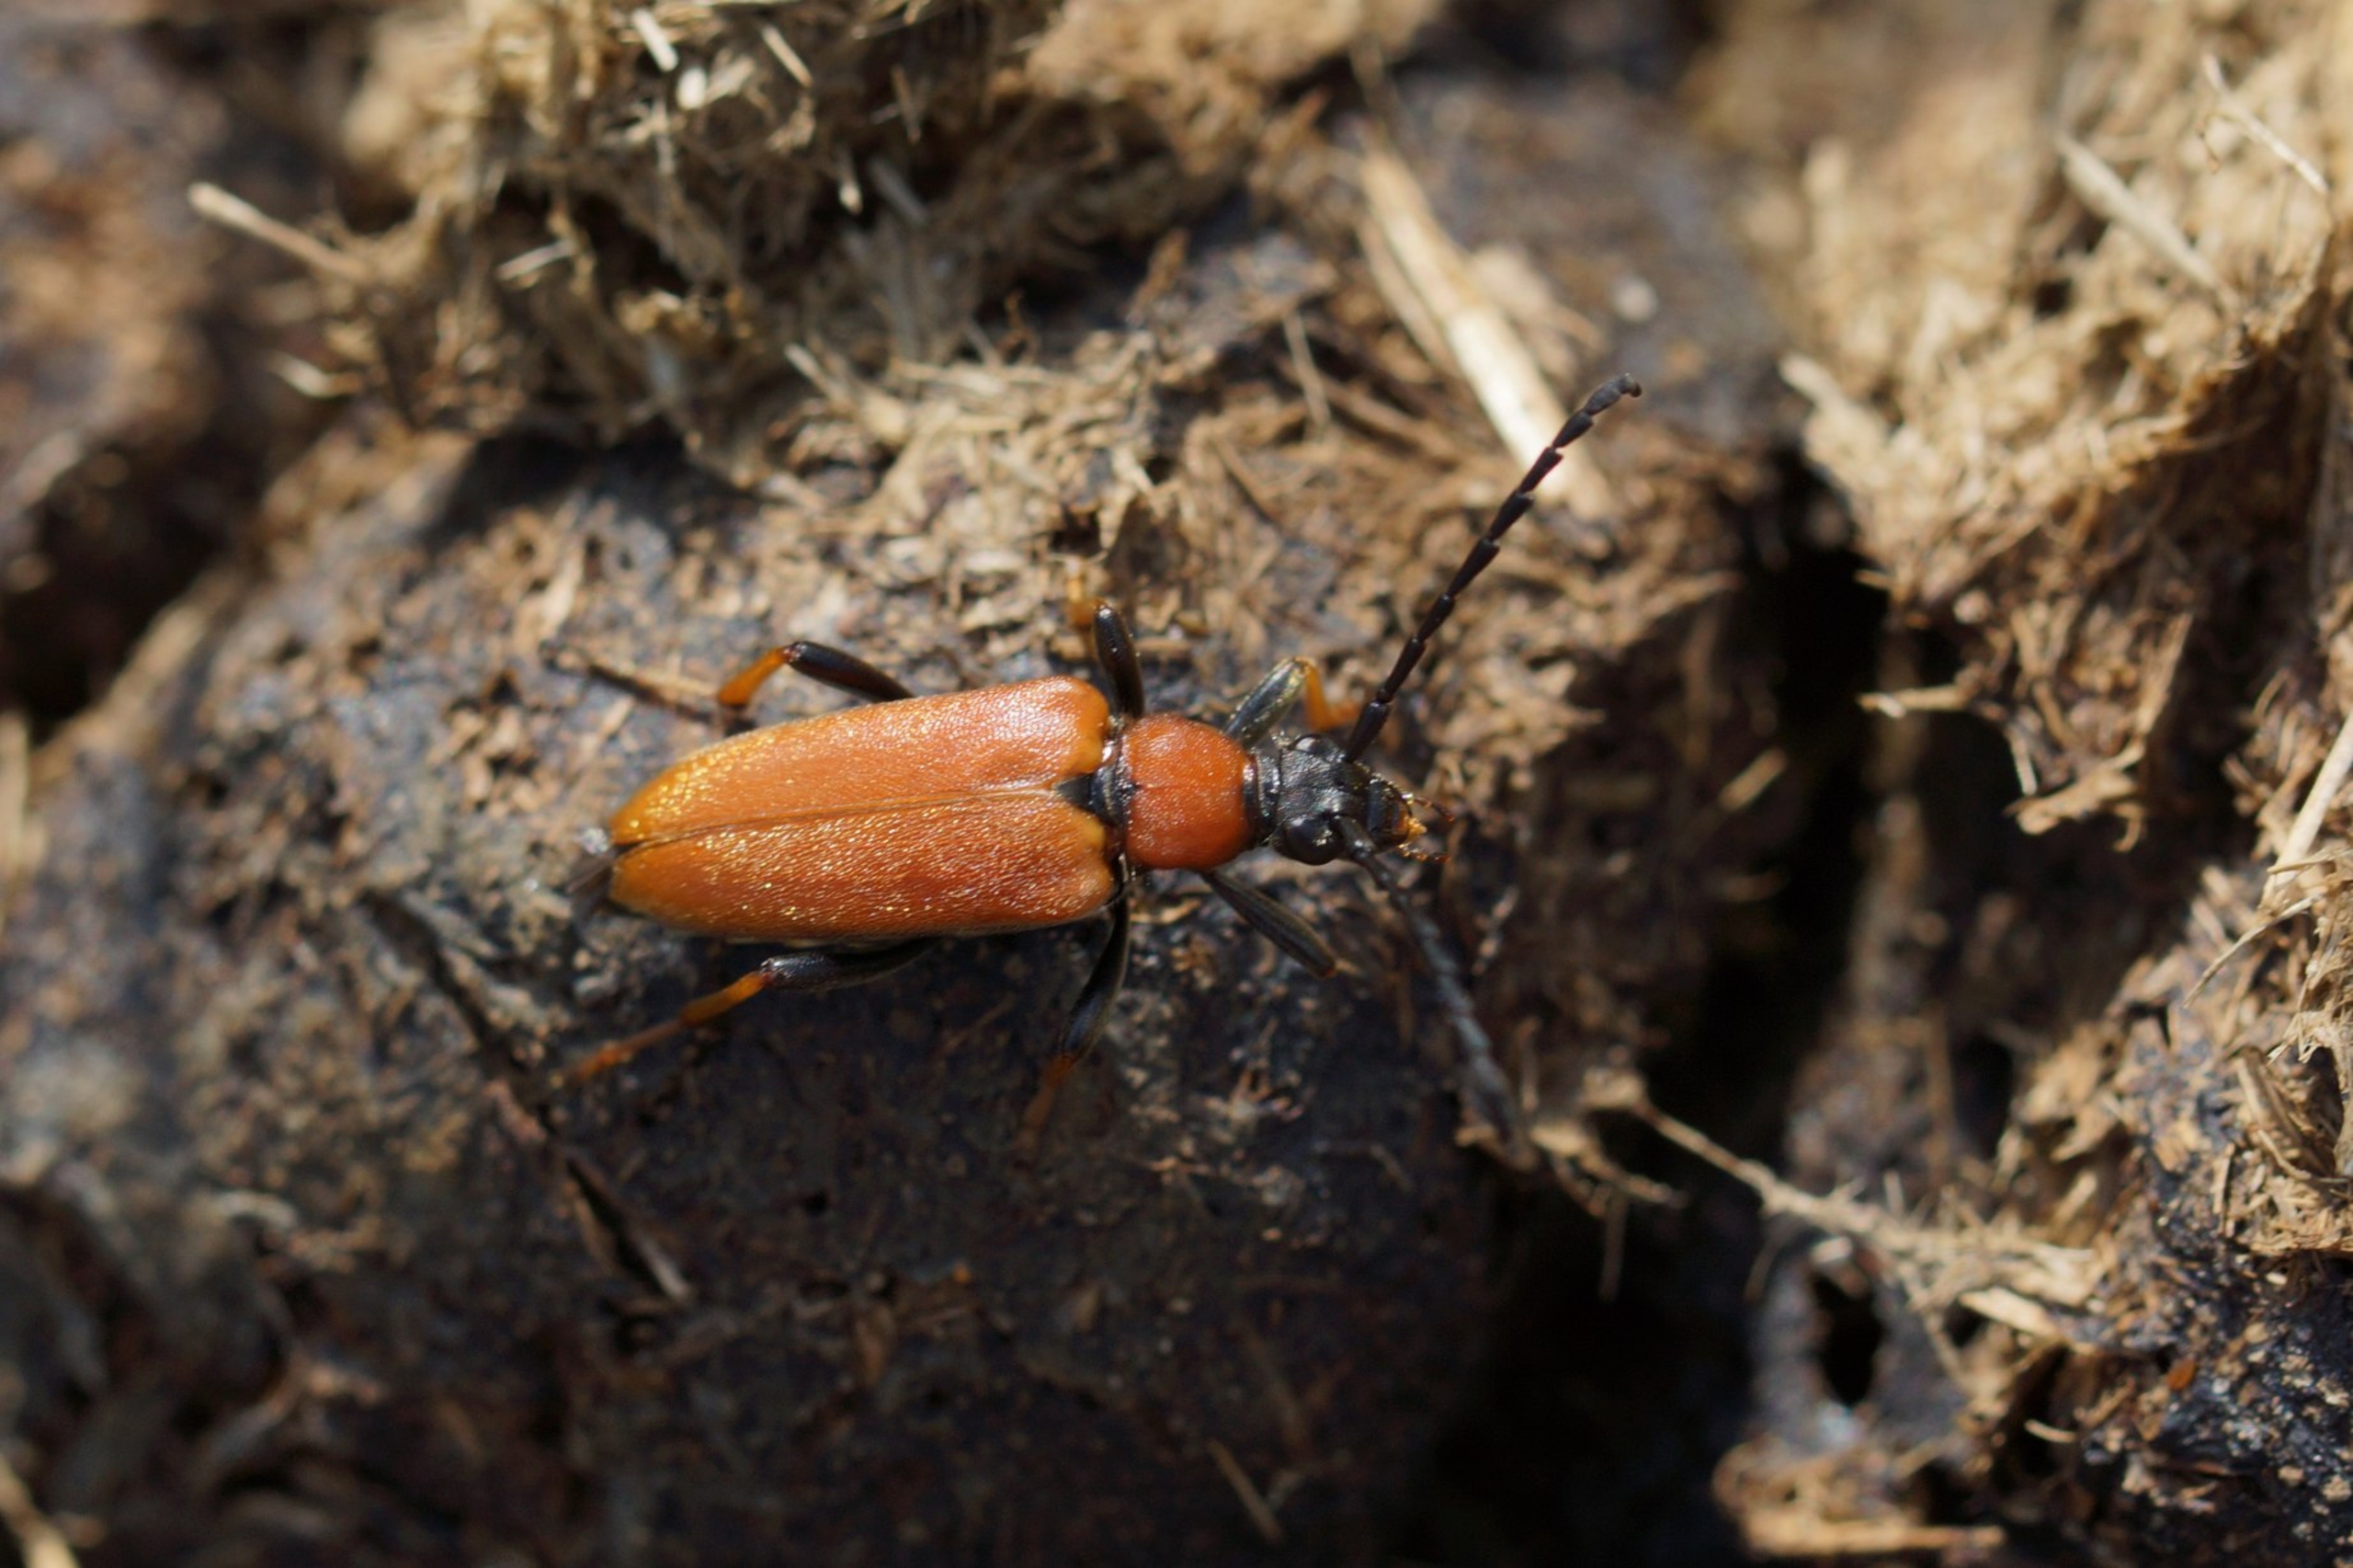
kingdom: Animalia
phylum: Arthropoda
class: Insecta
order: Coleoptera
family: Cerambycidae
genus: Stictoleptura
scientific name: Stictoleptura rubra
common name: Rød blomsterbuk
